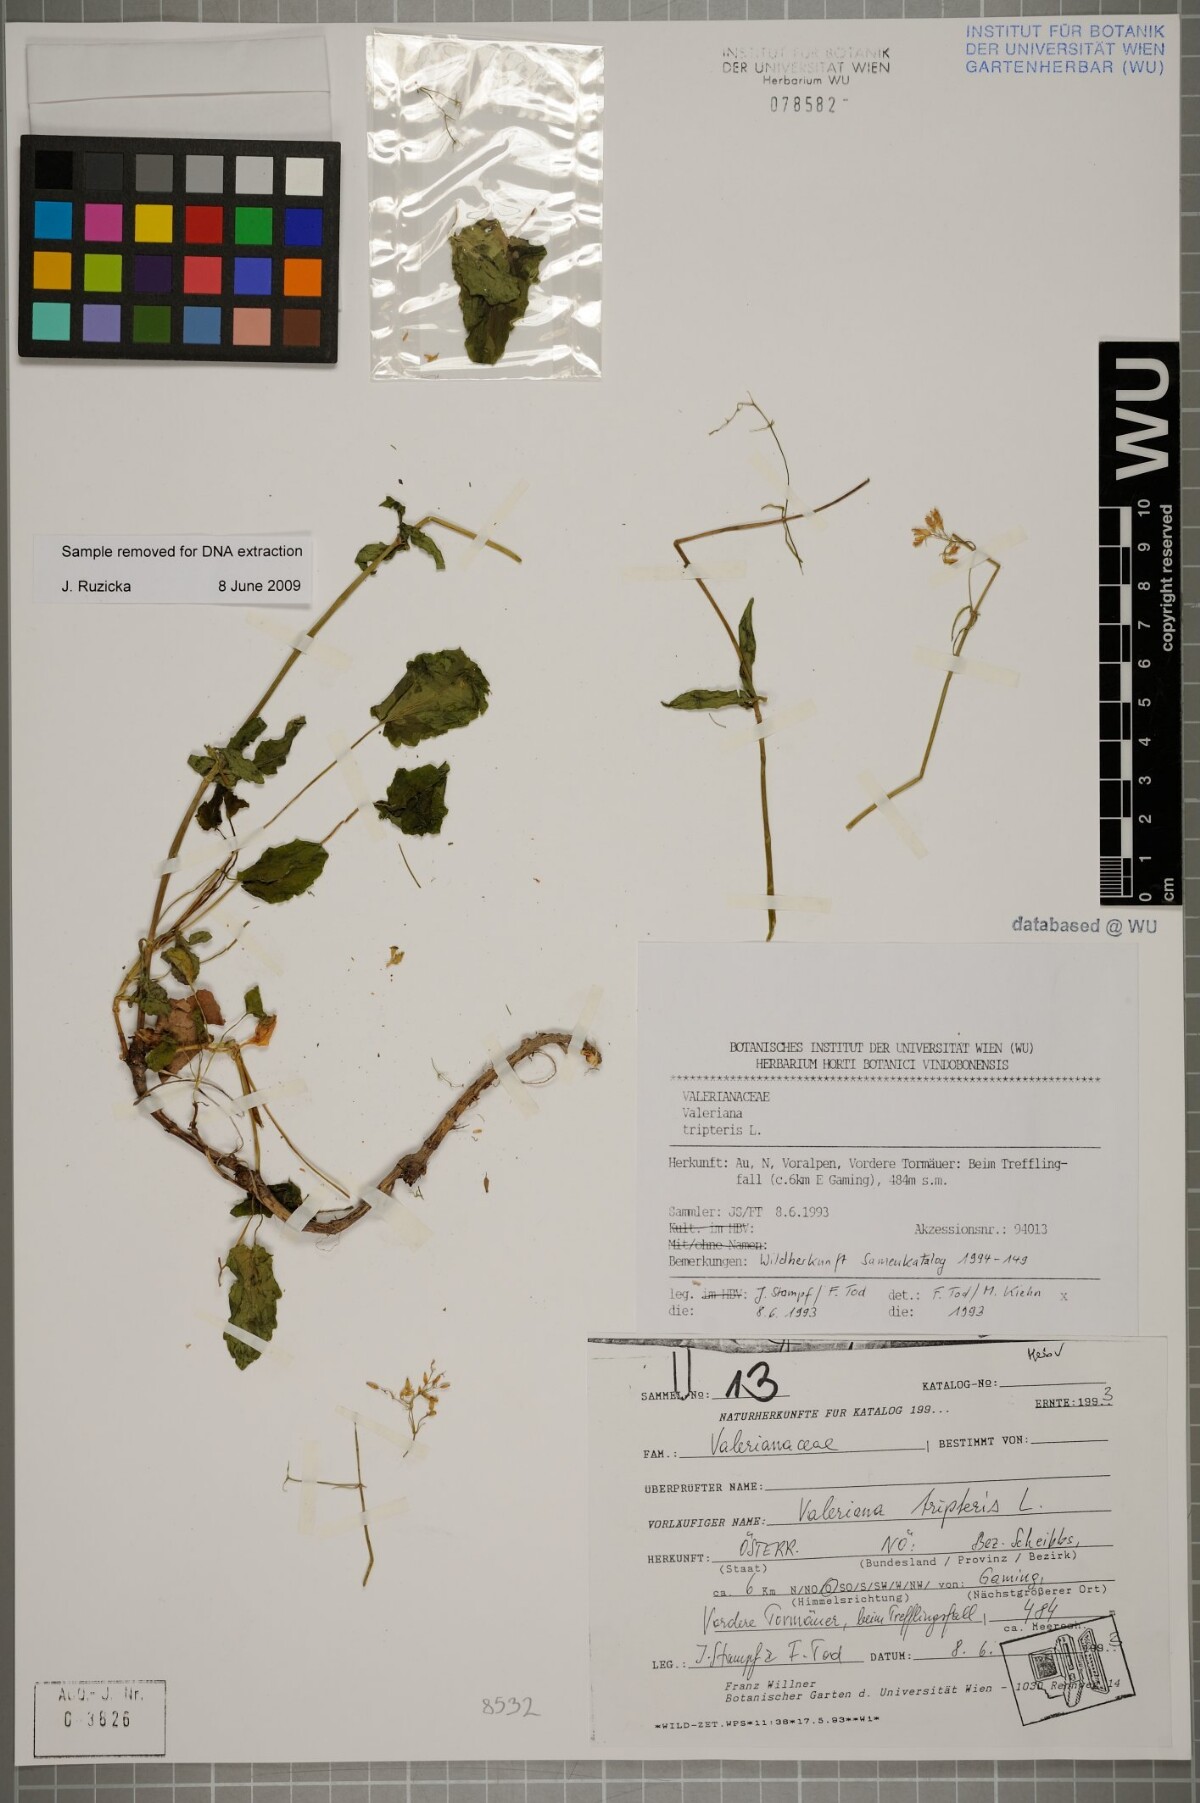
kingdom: Plantae
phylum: Tracheophyta
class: Magnoliopsida
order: Dipsacales
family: Caprifoliaceae
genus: Valeriana
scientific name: Valeriana tripteris
